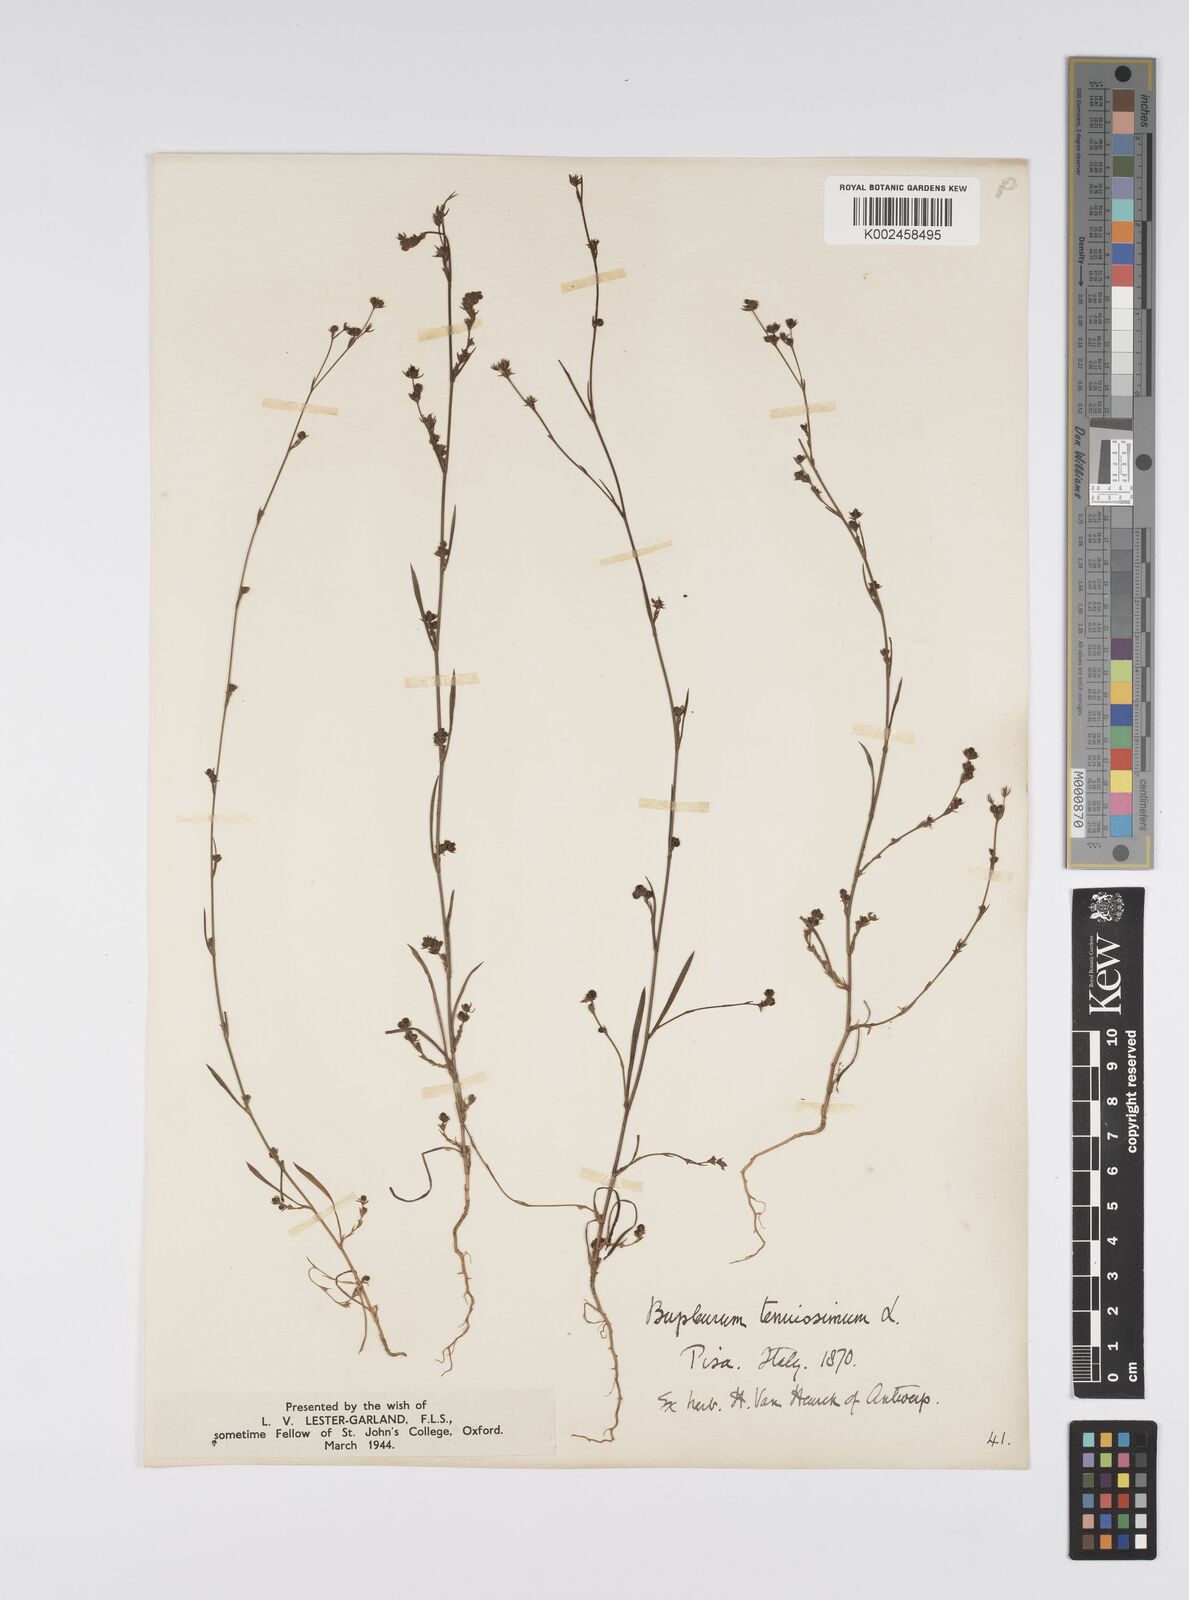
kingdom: Plantae
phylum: Tracheophyta
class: Magnoliopsida
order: Apiales
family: Apiaceae
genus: Bupleurum
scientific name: Bupleurum tenuissimum
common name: Slender hare's-ear
